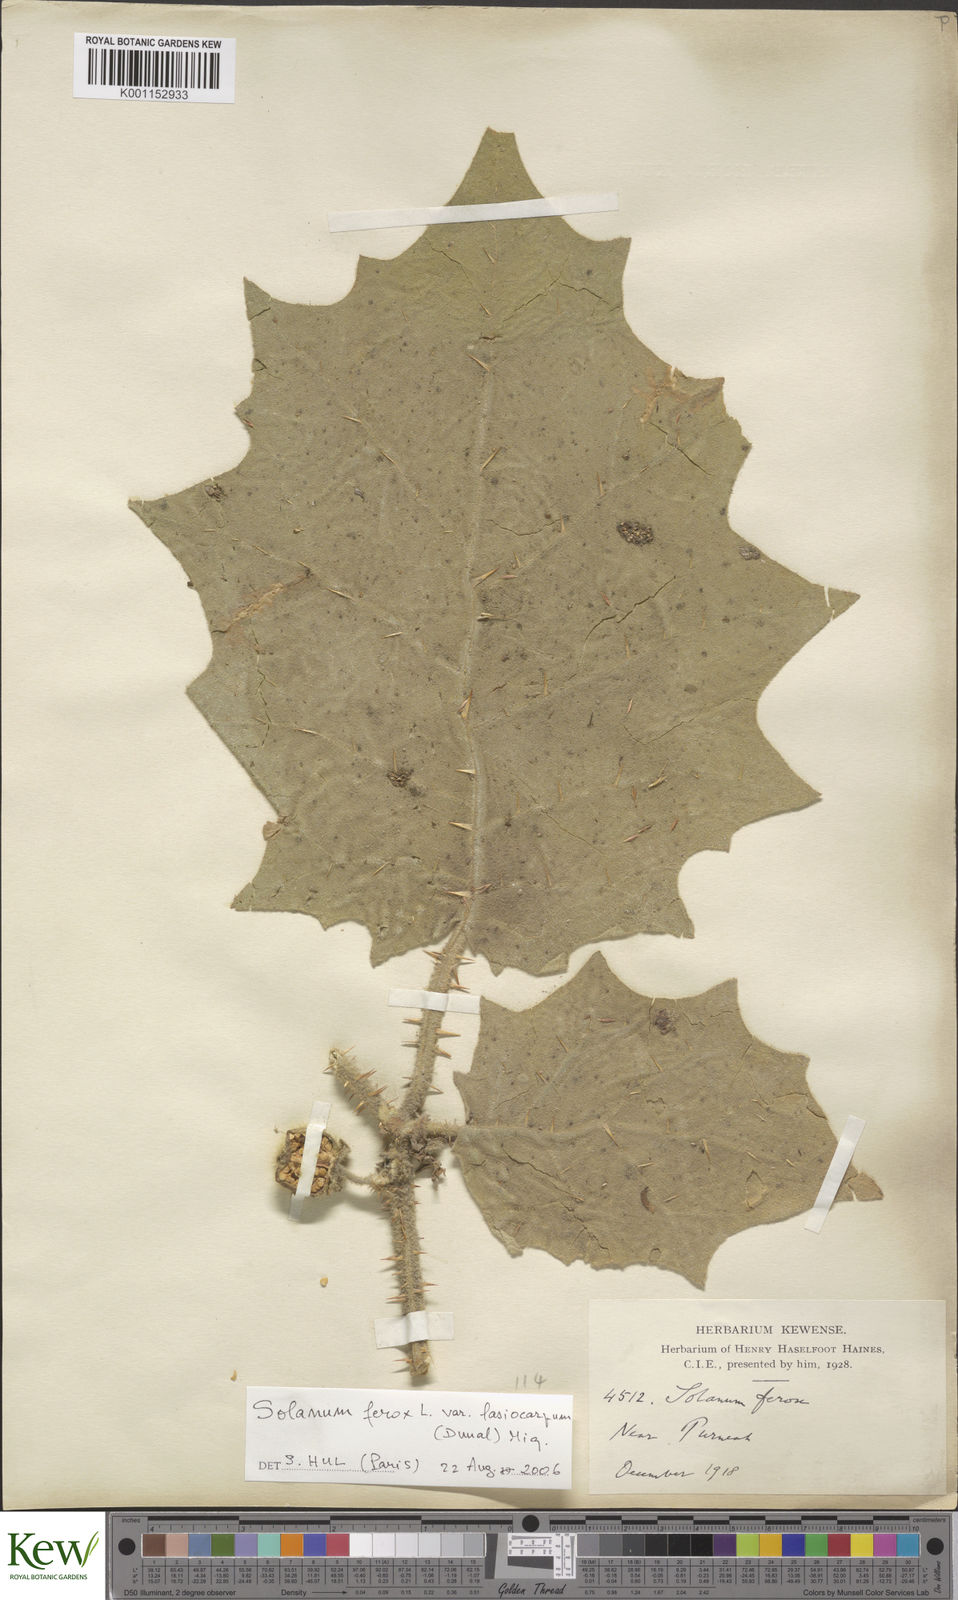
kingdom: Plantae
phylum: Tracheophyta
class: Magnoliopsida
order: Solanales
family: Solanaceae
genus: Solanum
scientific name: Solanum
